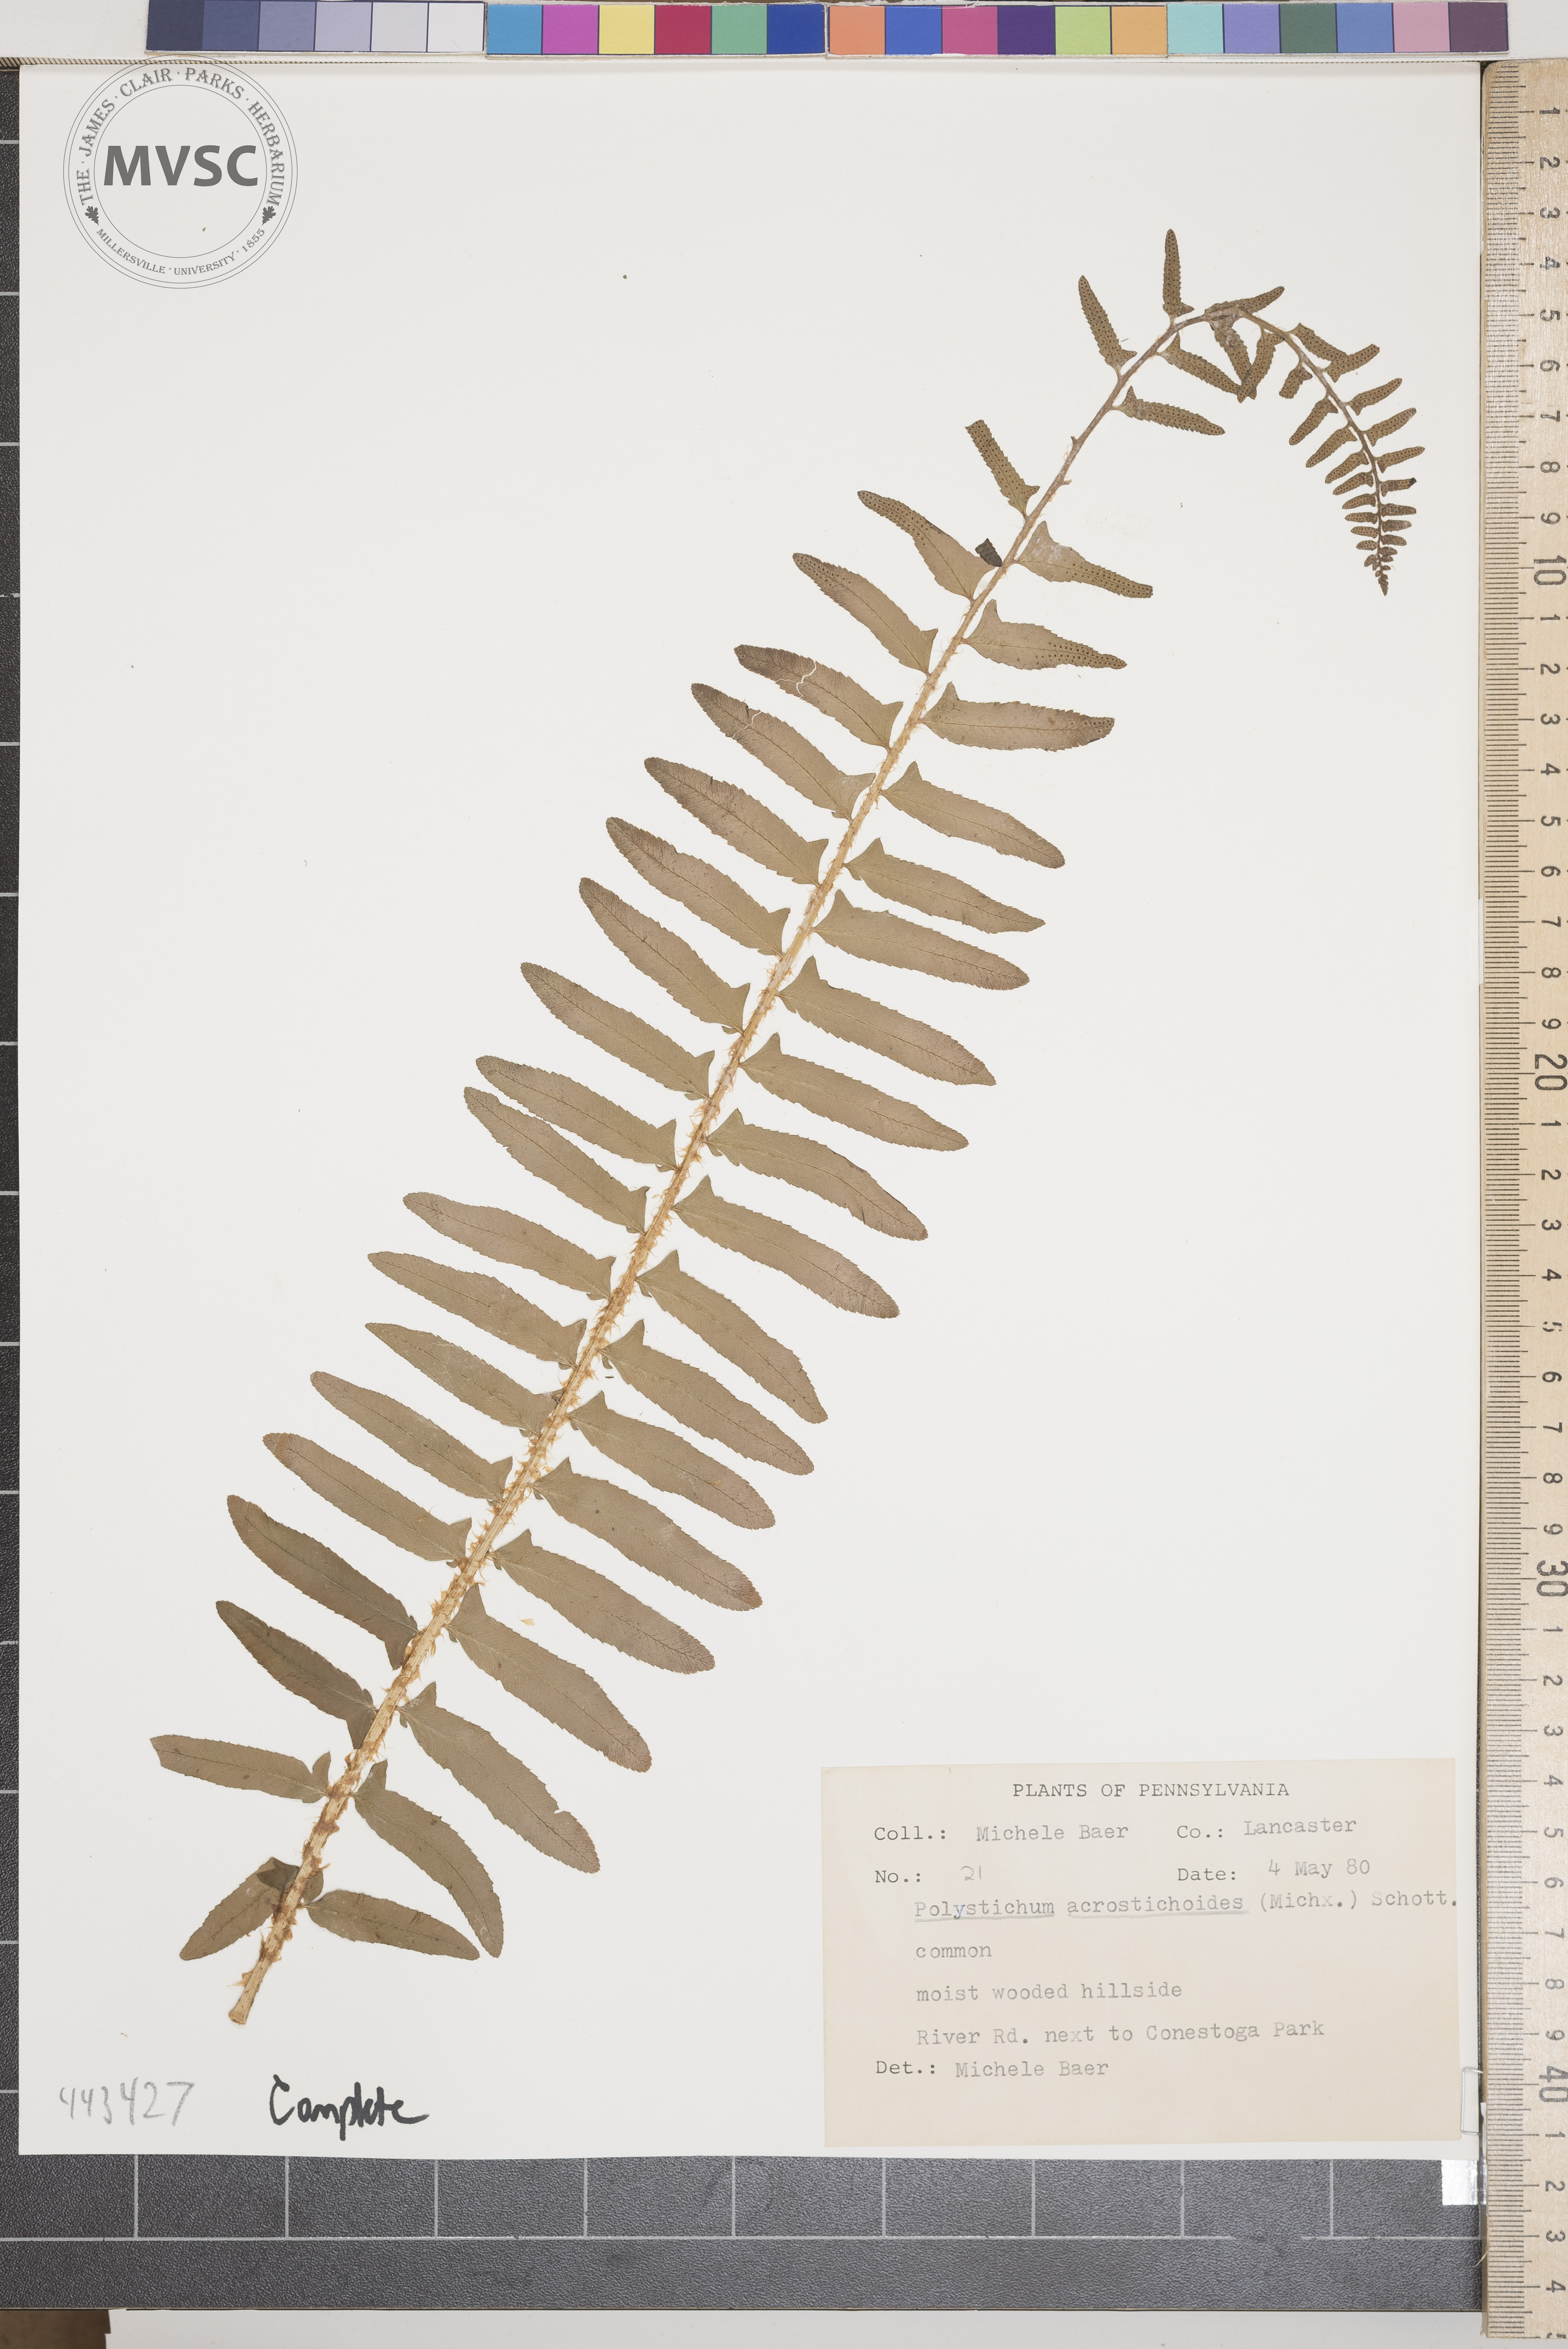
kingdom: Plantae
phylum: Tracheophyta
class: Polypodiopsida
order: Polypodiales
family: Dryopteridaceae
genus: Polystichum
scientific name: Polystichum acrostichoides
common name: Christmas fern
